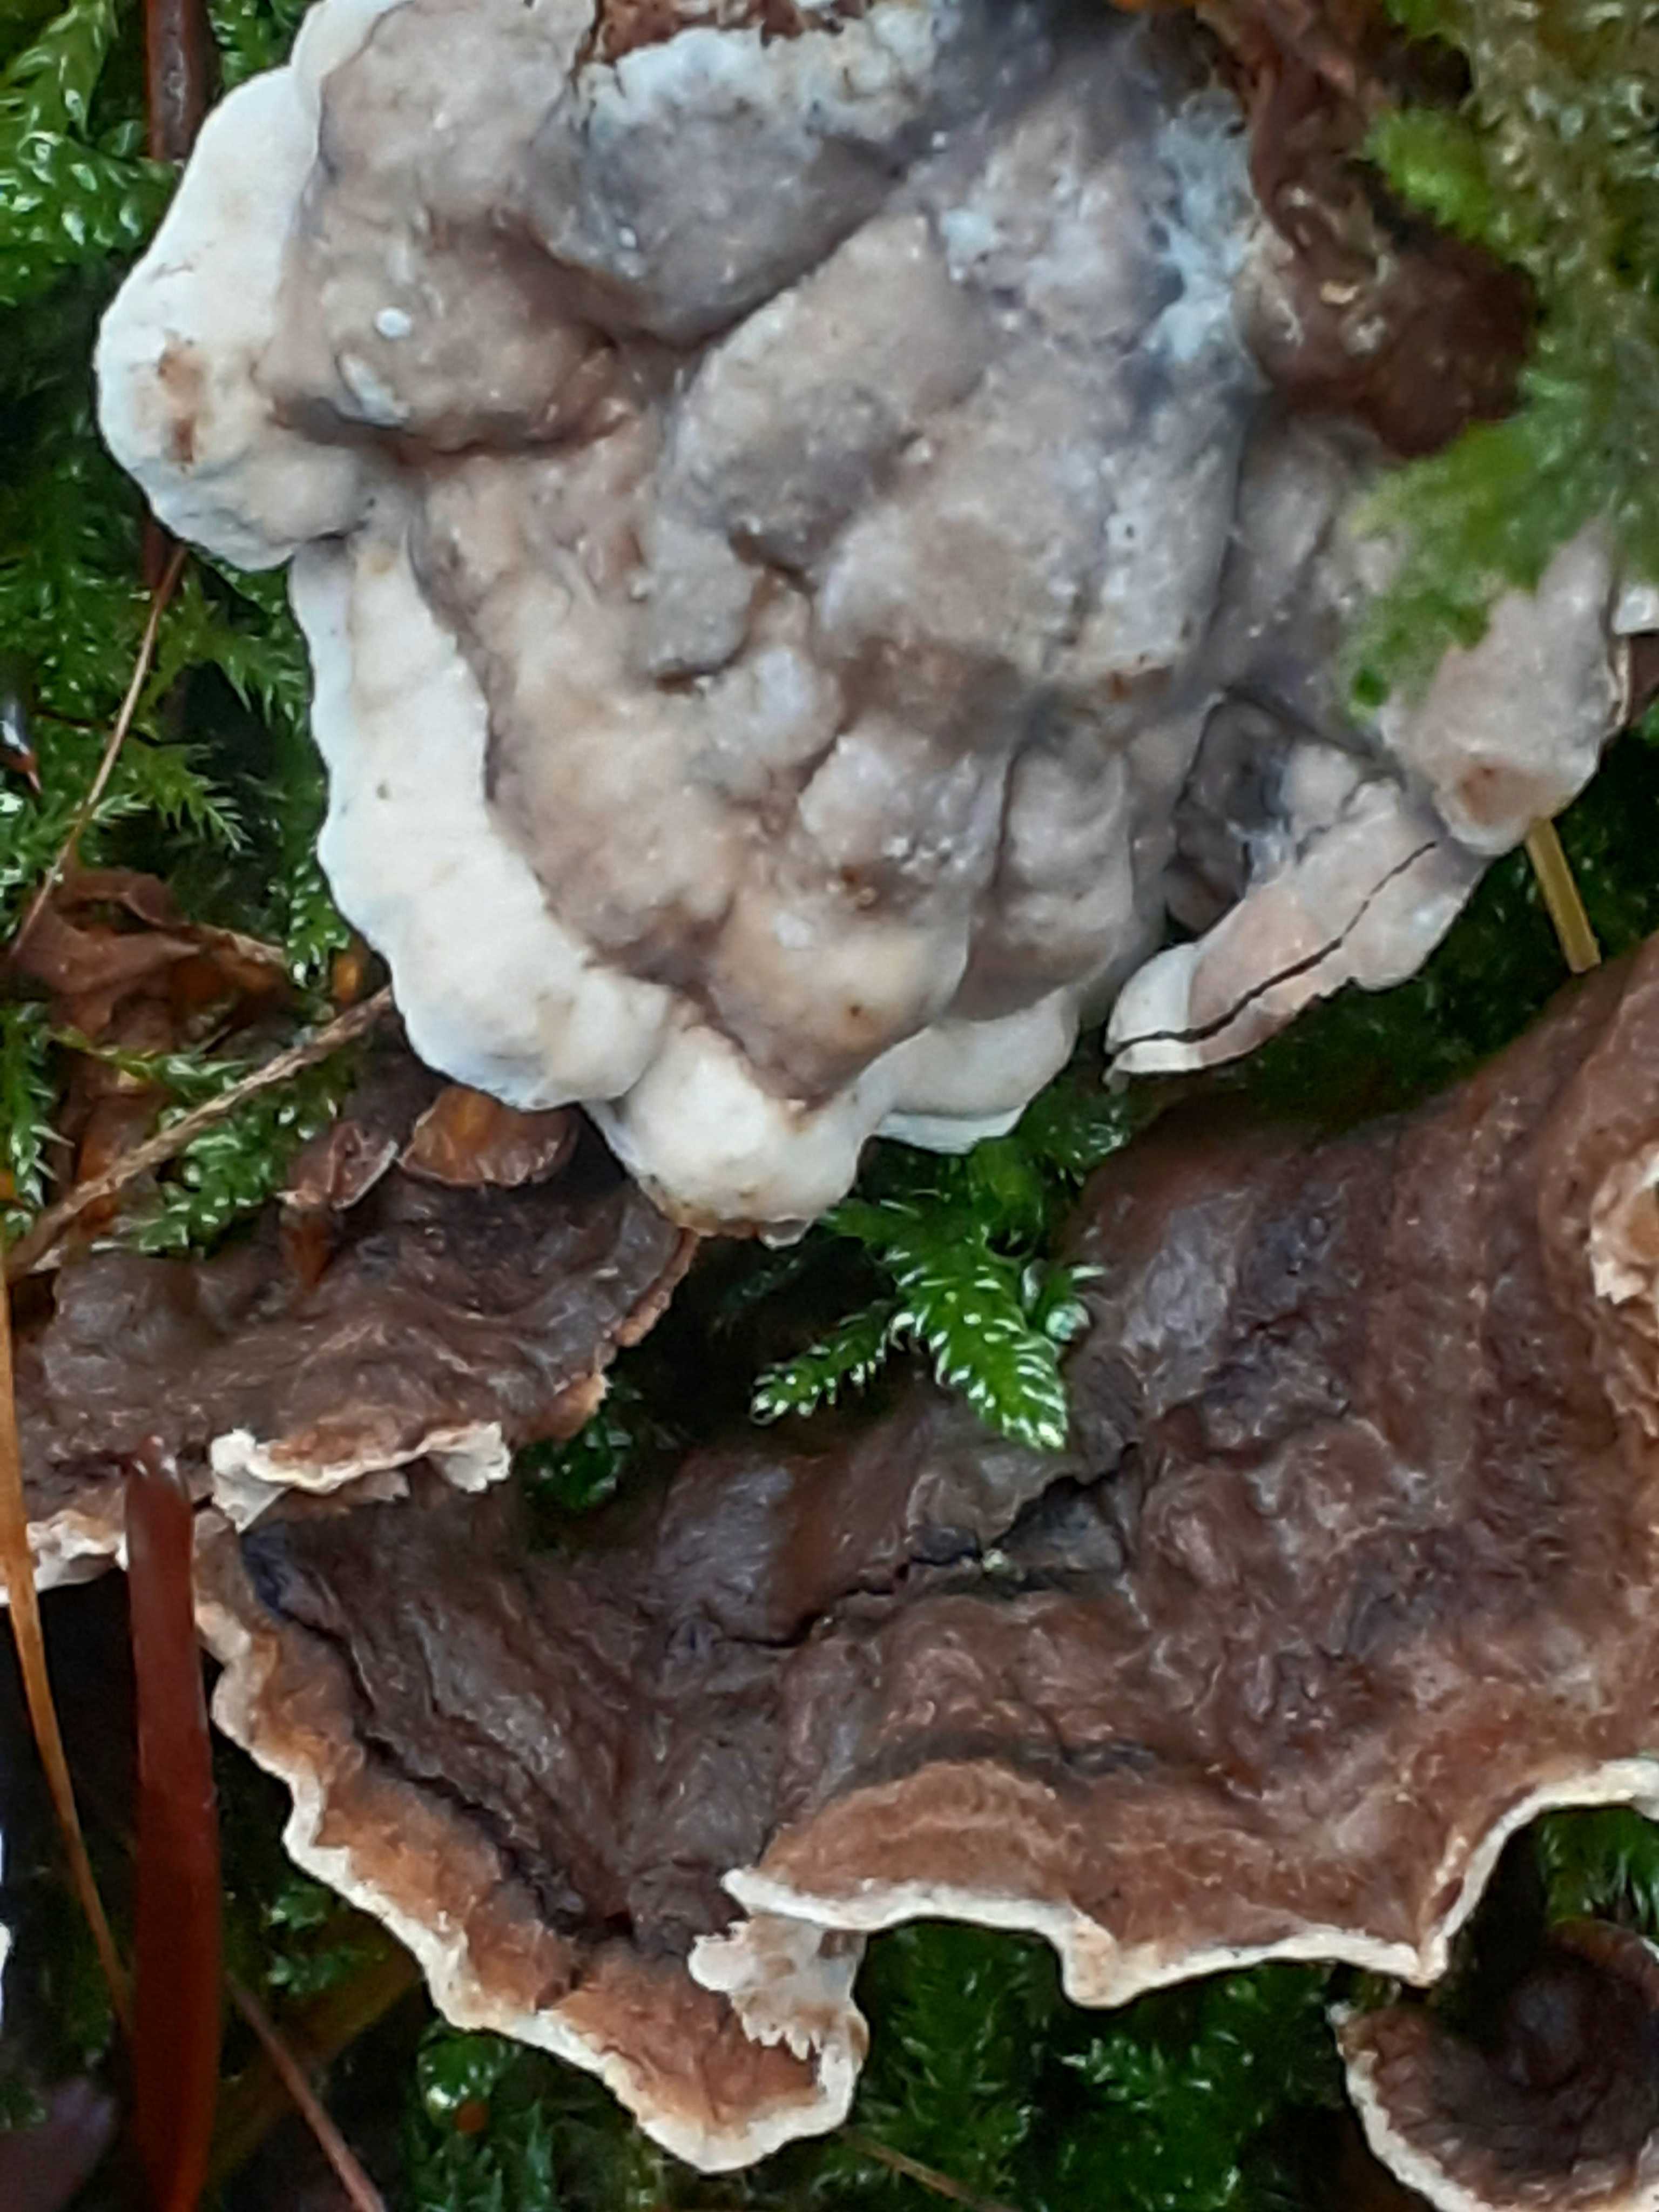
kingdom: Fungi
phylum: Basidiomycota
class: Agaricomycetes
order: Russulales
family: Hericiaceae
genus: Laxitextum
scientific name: Laxitextum bicolor
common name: tvefarvet filtskind
